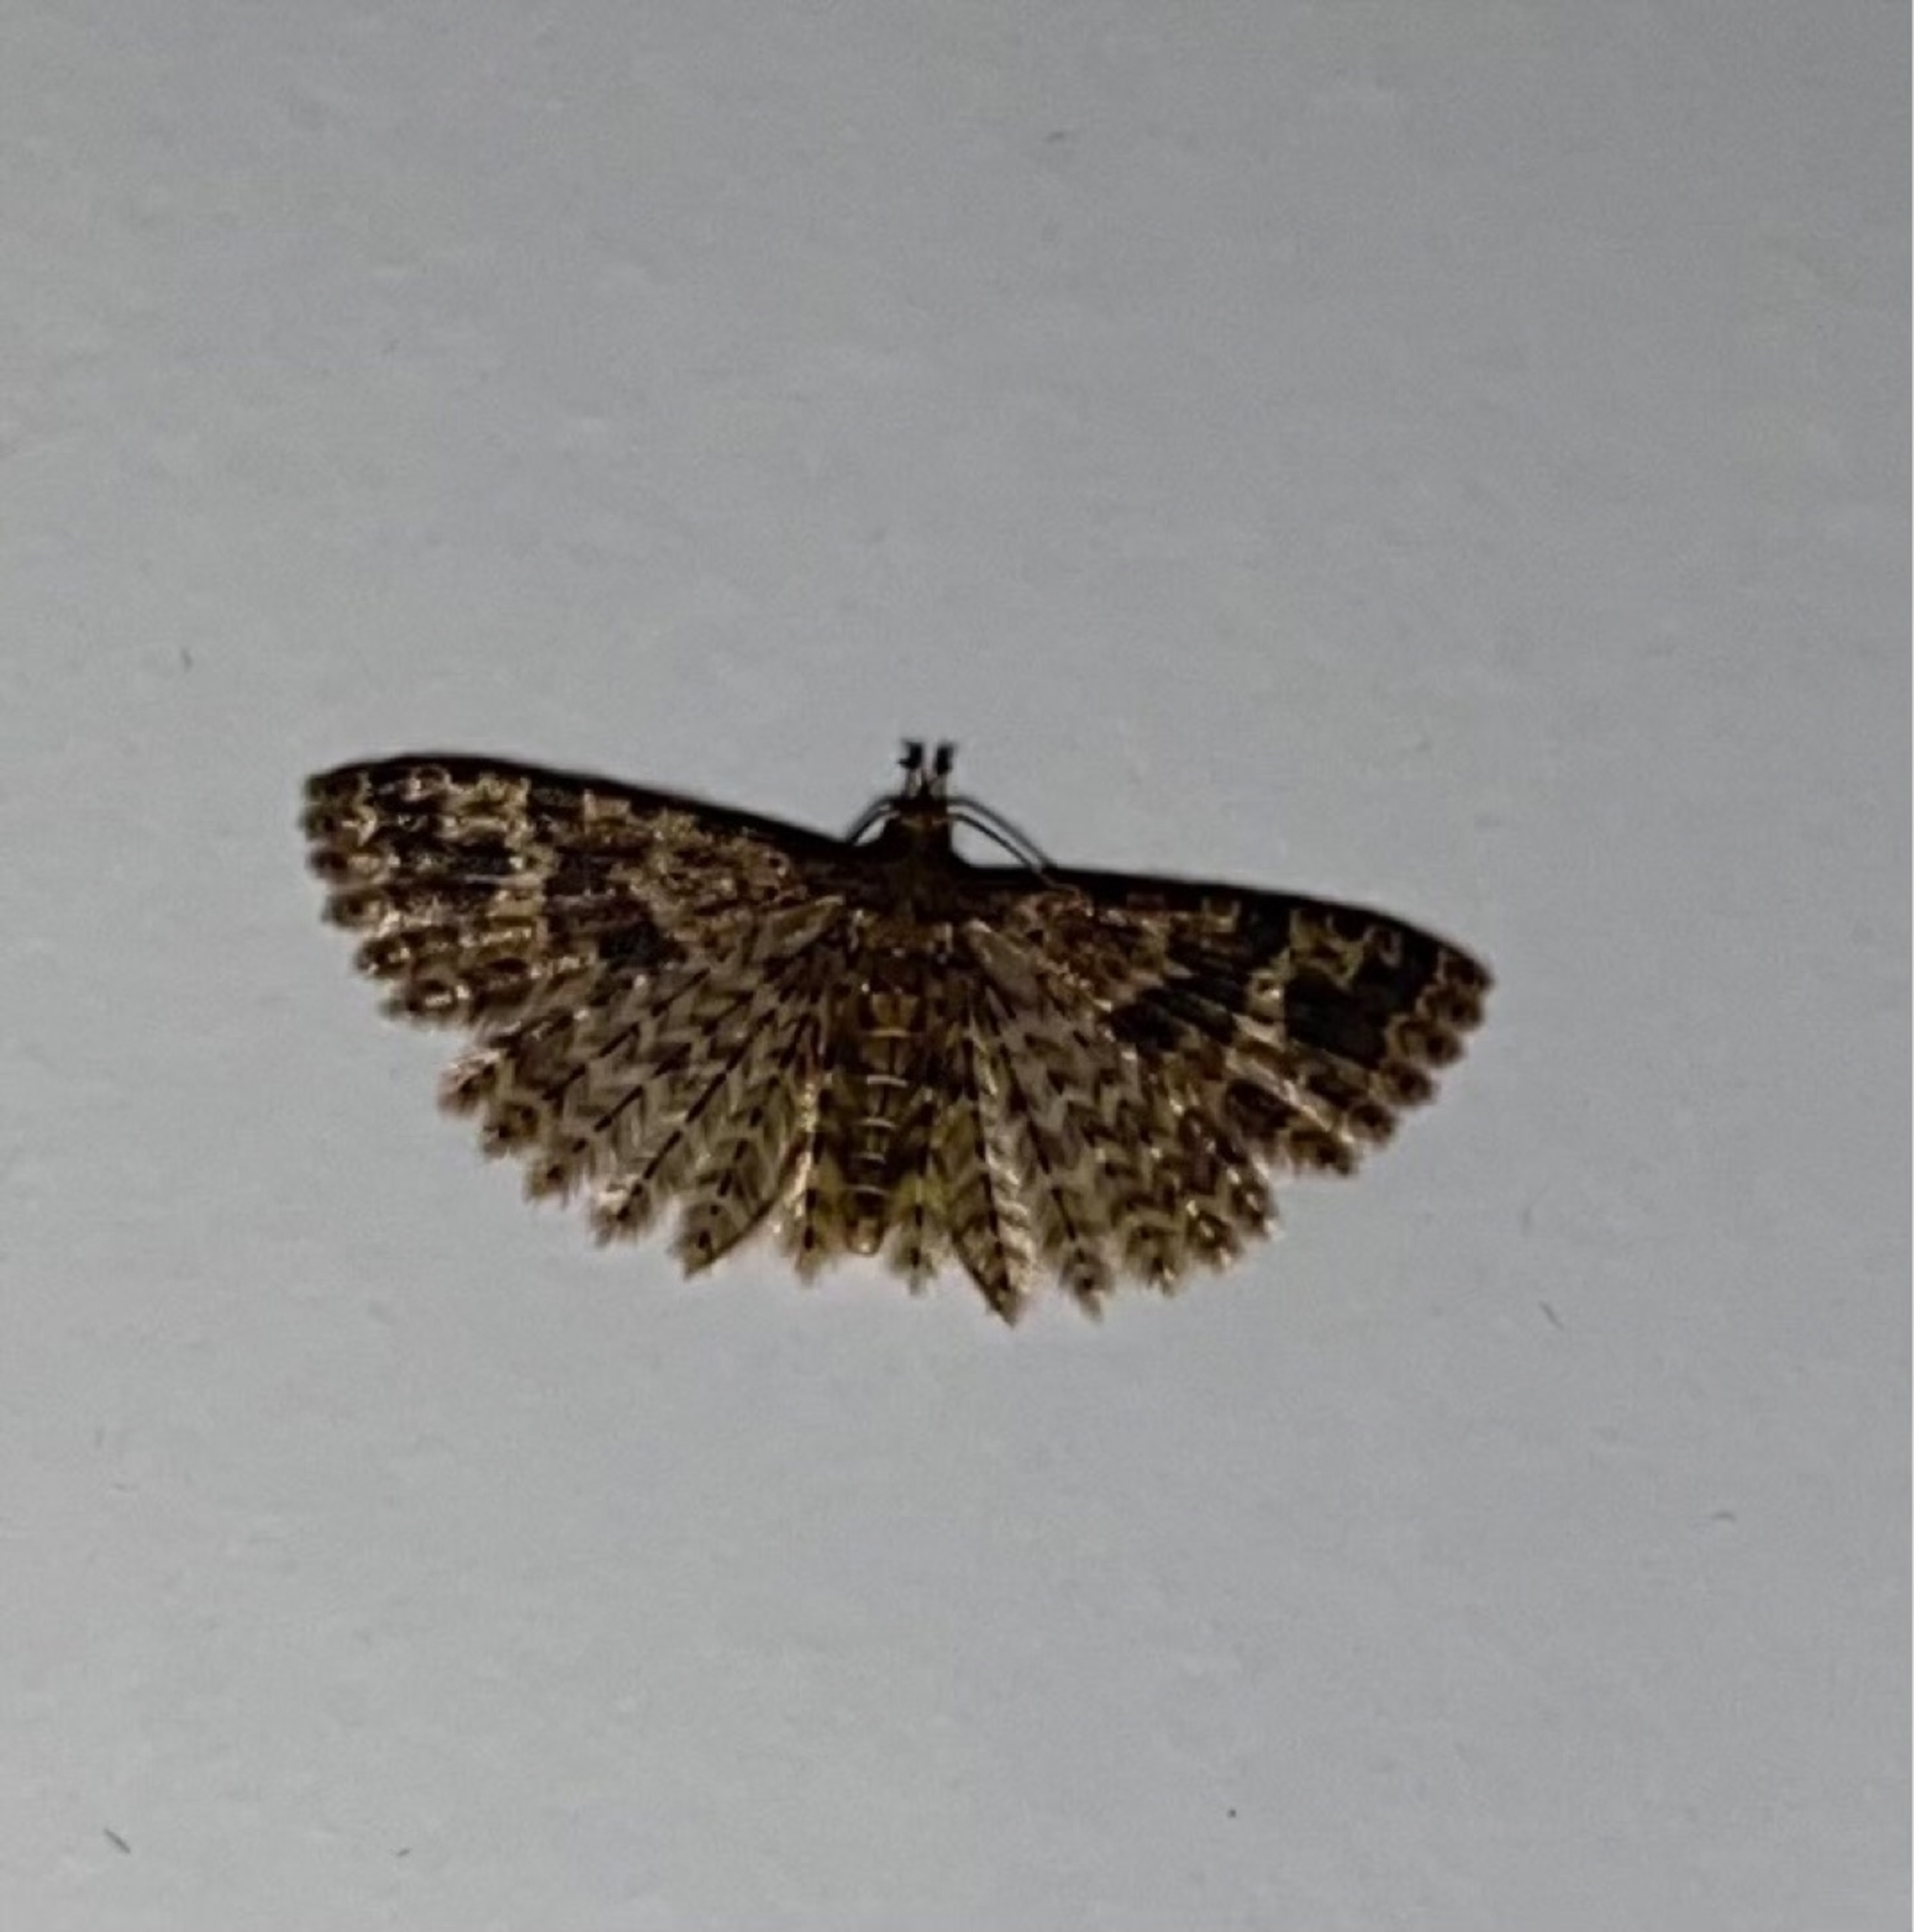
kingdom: Animalia
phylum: Arthropoda
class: Insecta
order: Lepidoptera
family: Alucitidae
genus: Alucita
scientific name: Alucita hexadactyla
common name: Kaprifoliefjermøl
